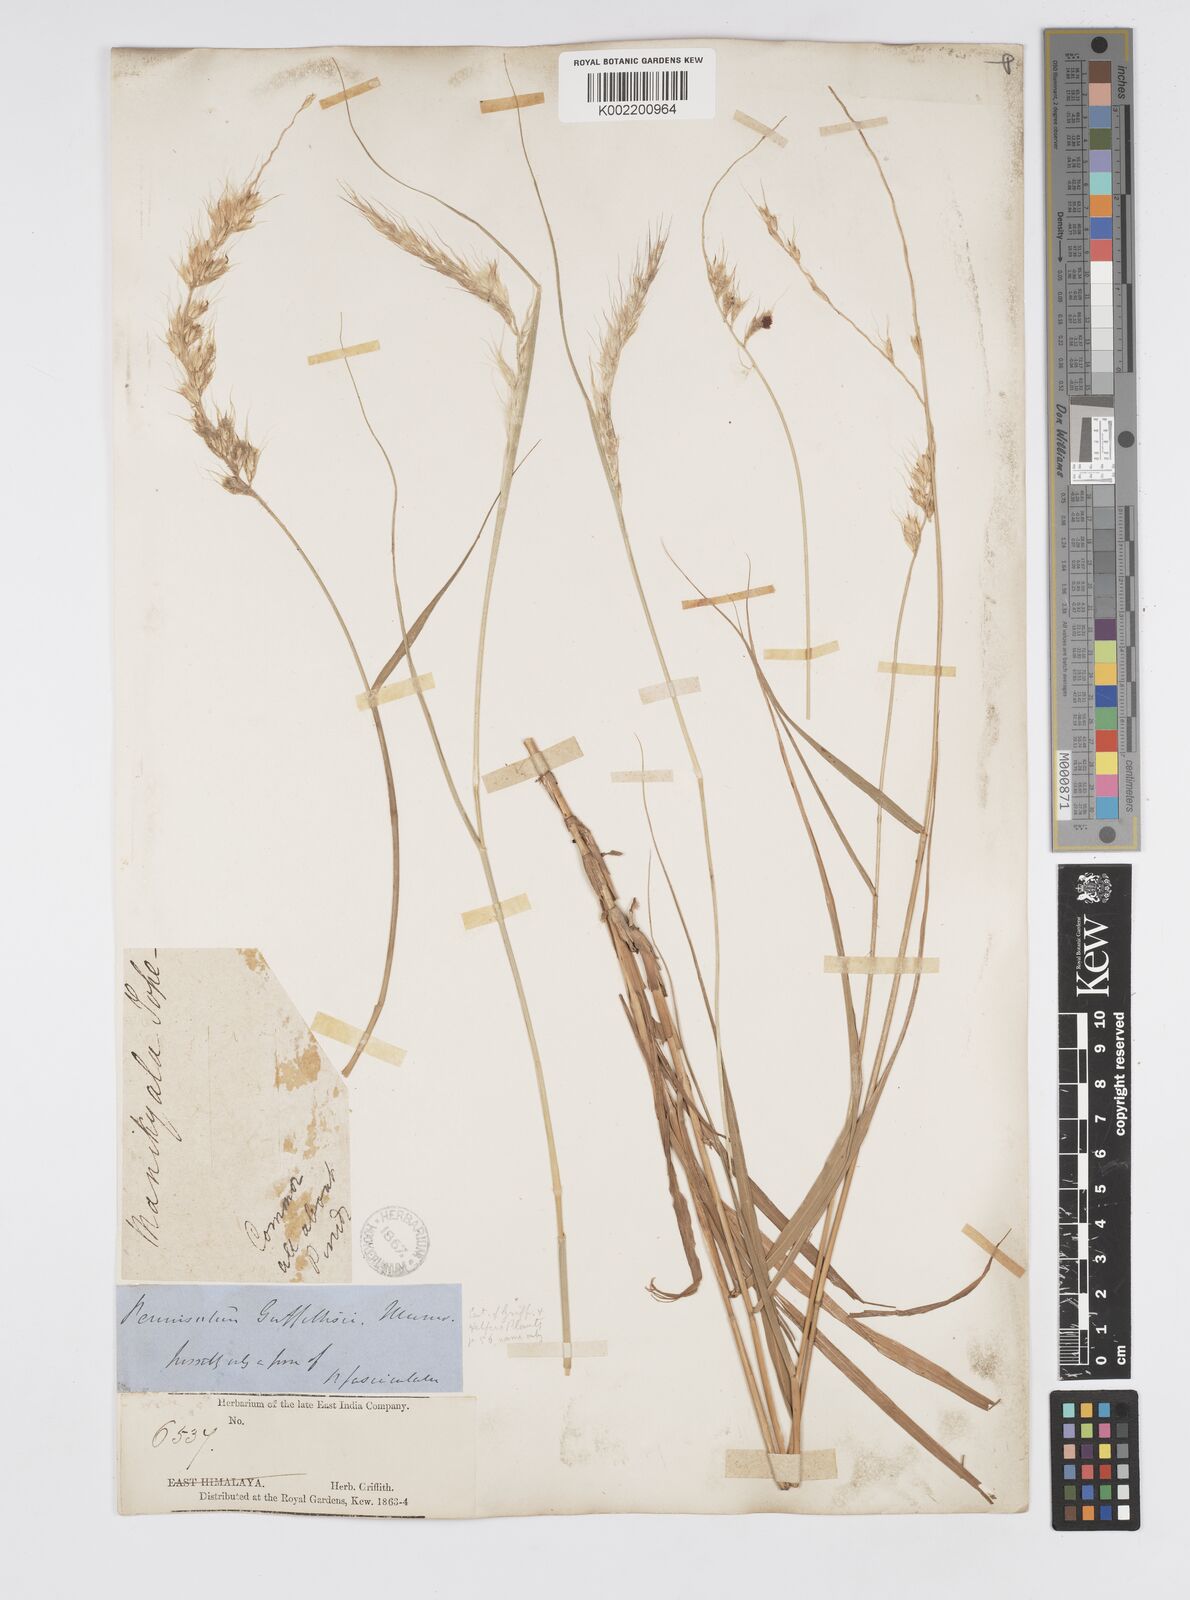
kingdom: Plantae
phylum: Tracheophyta
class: Liliopsida
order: Poales
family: Poaceae
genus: Cenchrus
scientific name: Cenchrus orientalis
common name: Oriental fountain grass
